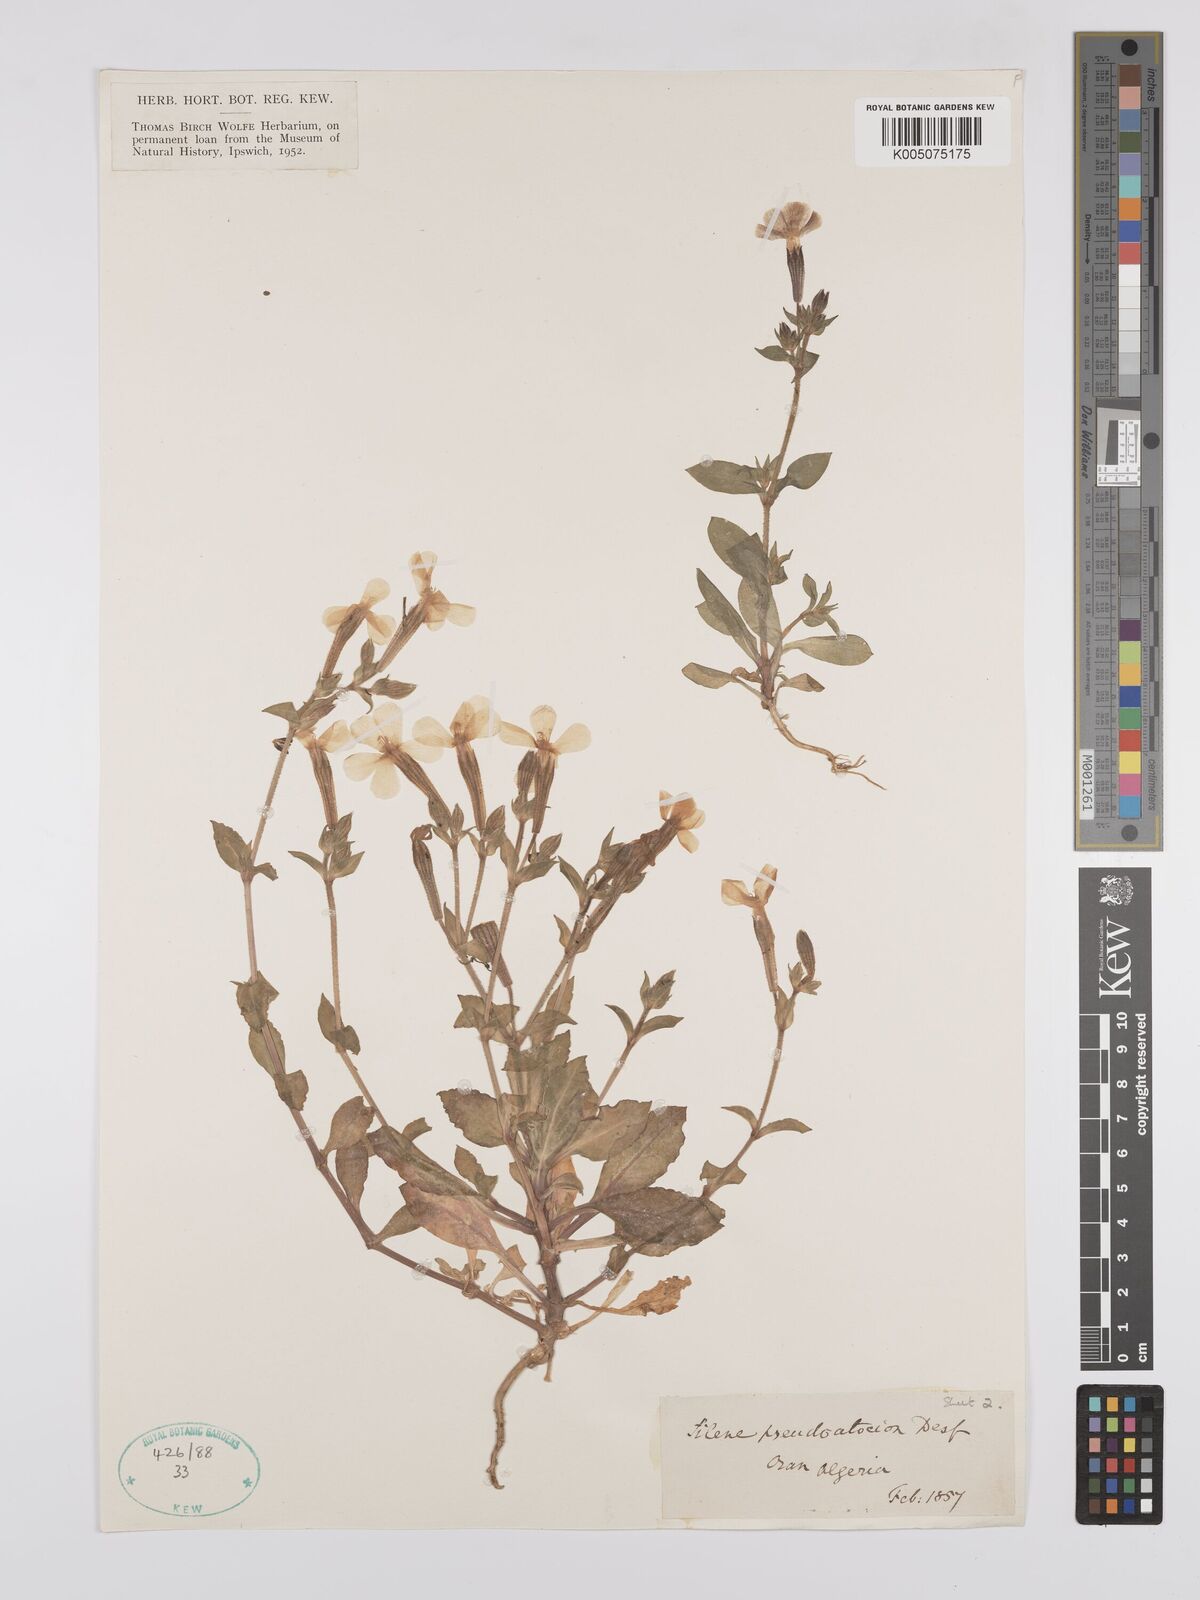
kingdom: Plantae
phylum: Tracheophyta
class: Magnoliopsida
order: Caryophyllales
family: Caryophyllaceae
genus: Silene
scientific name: Silene pseudoatocion
